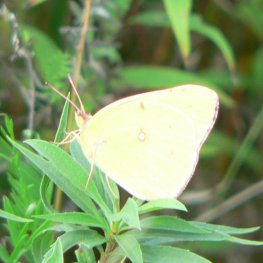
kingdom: Animalia
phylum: Arthropoda
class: Insecta
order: Lepidoptera
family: Pieridae
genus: Colias
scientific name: Colias philodice
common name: Clouded Sulphur
